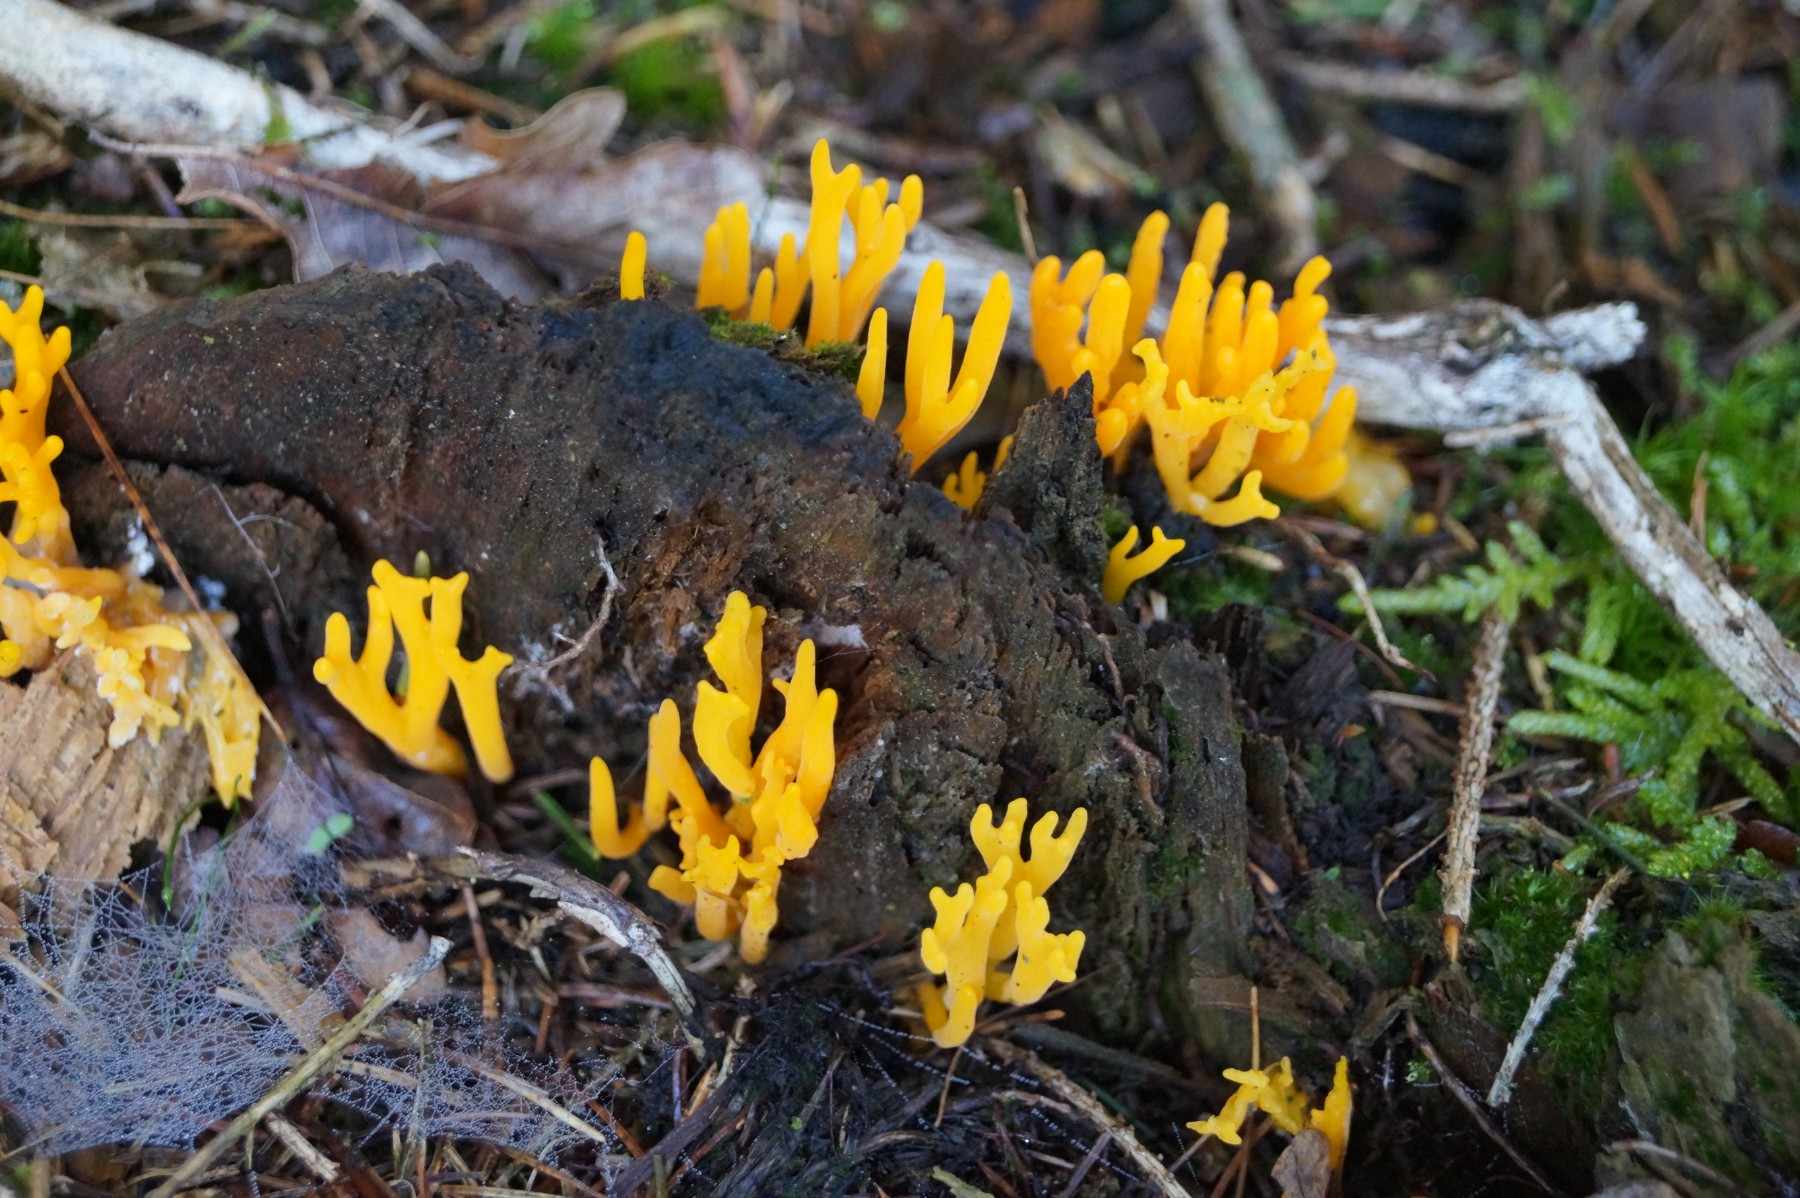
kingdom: Fungi
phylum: Basidiomycota
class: Dacrymycetes
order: Dacrymycetales
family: Dacrymycetaceae
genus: Calocera
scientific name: Calocera viscosa
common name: almindelig guldgaffel
